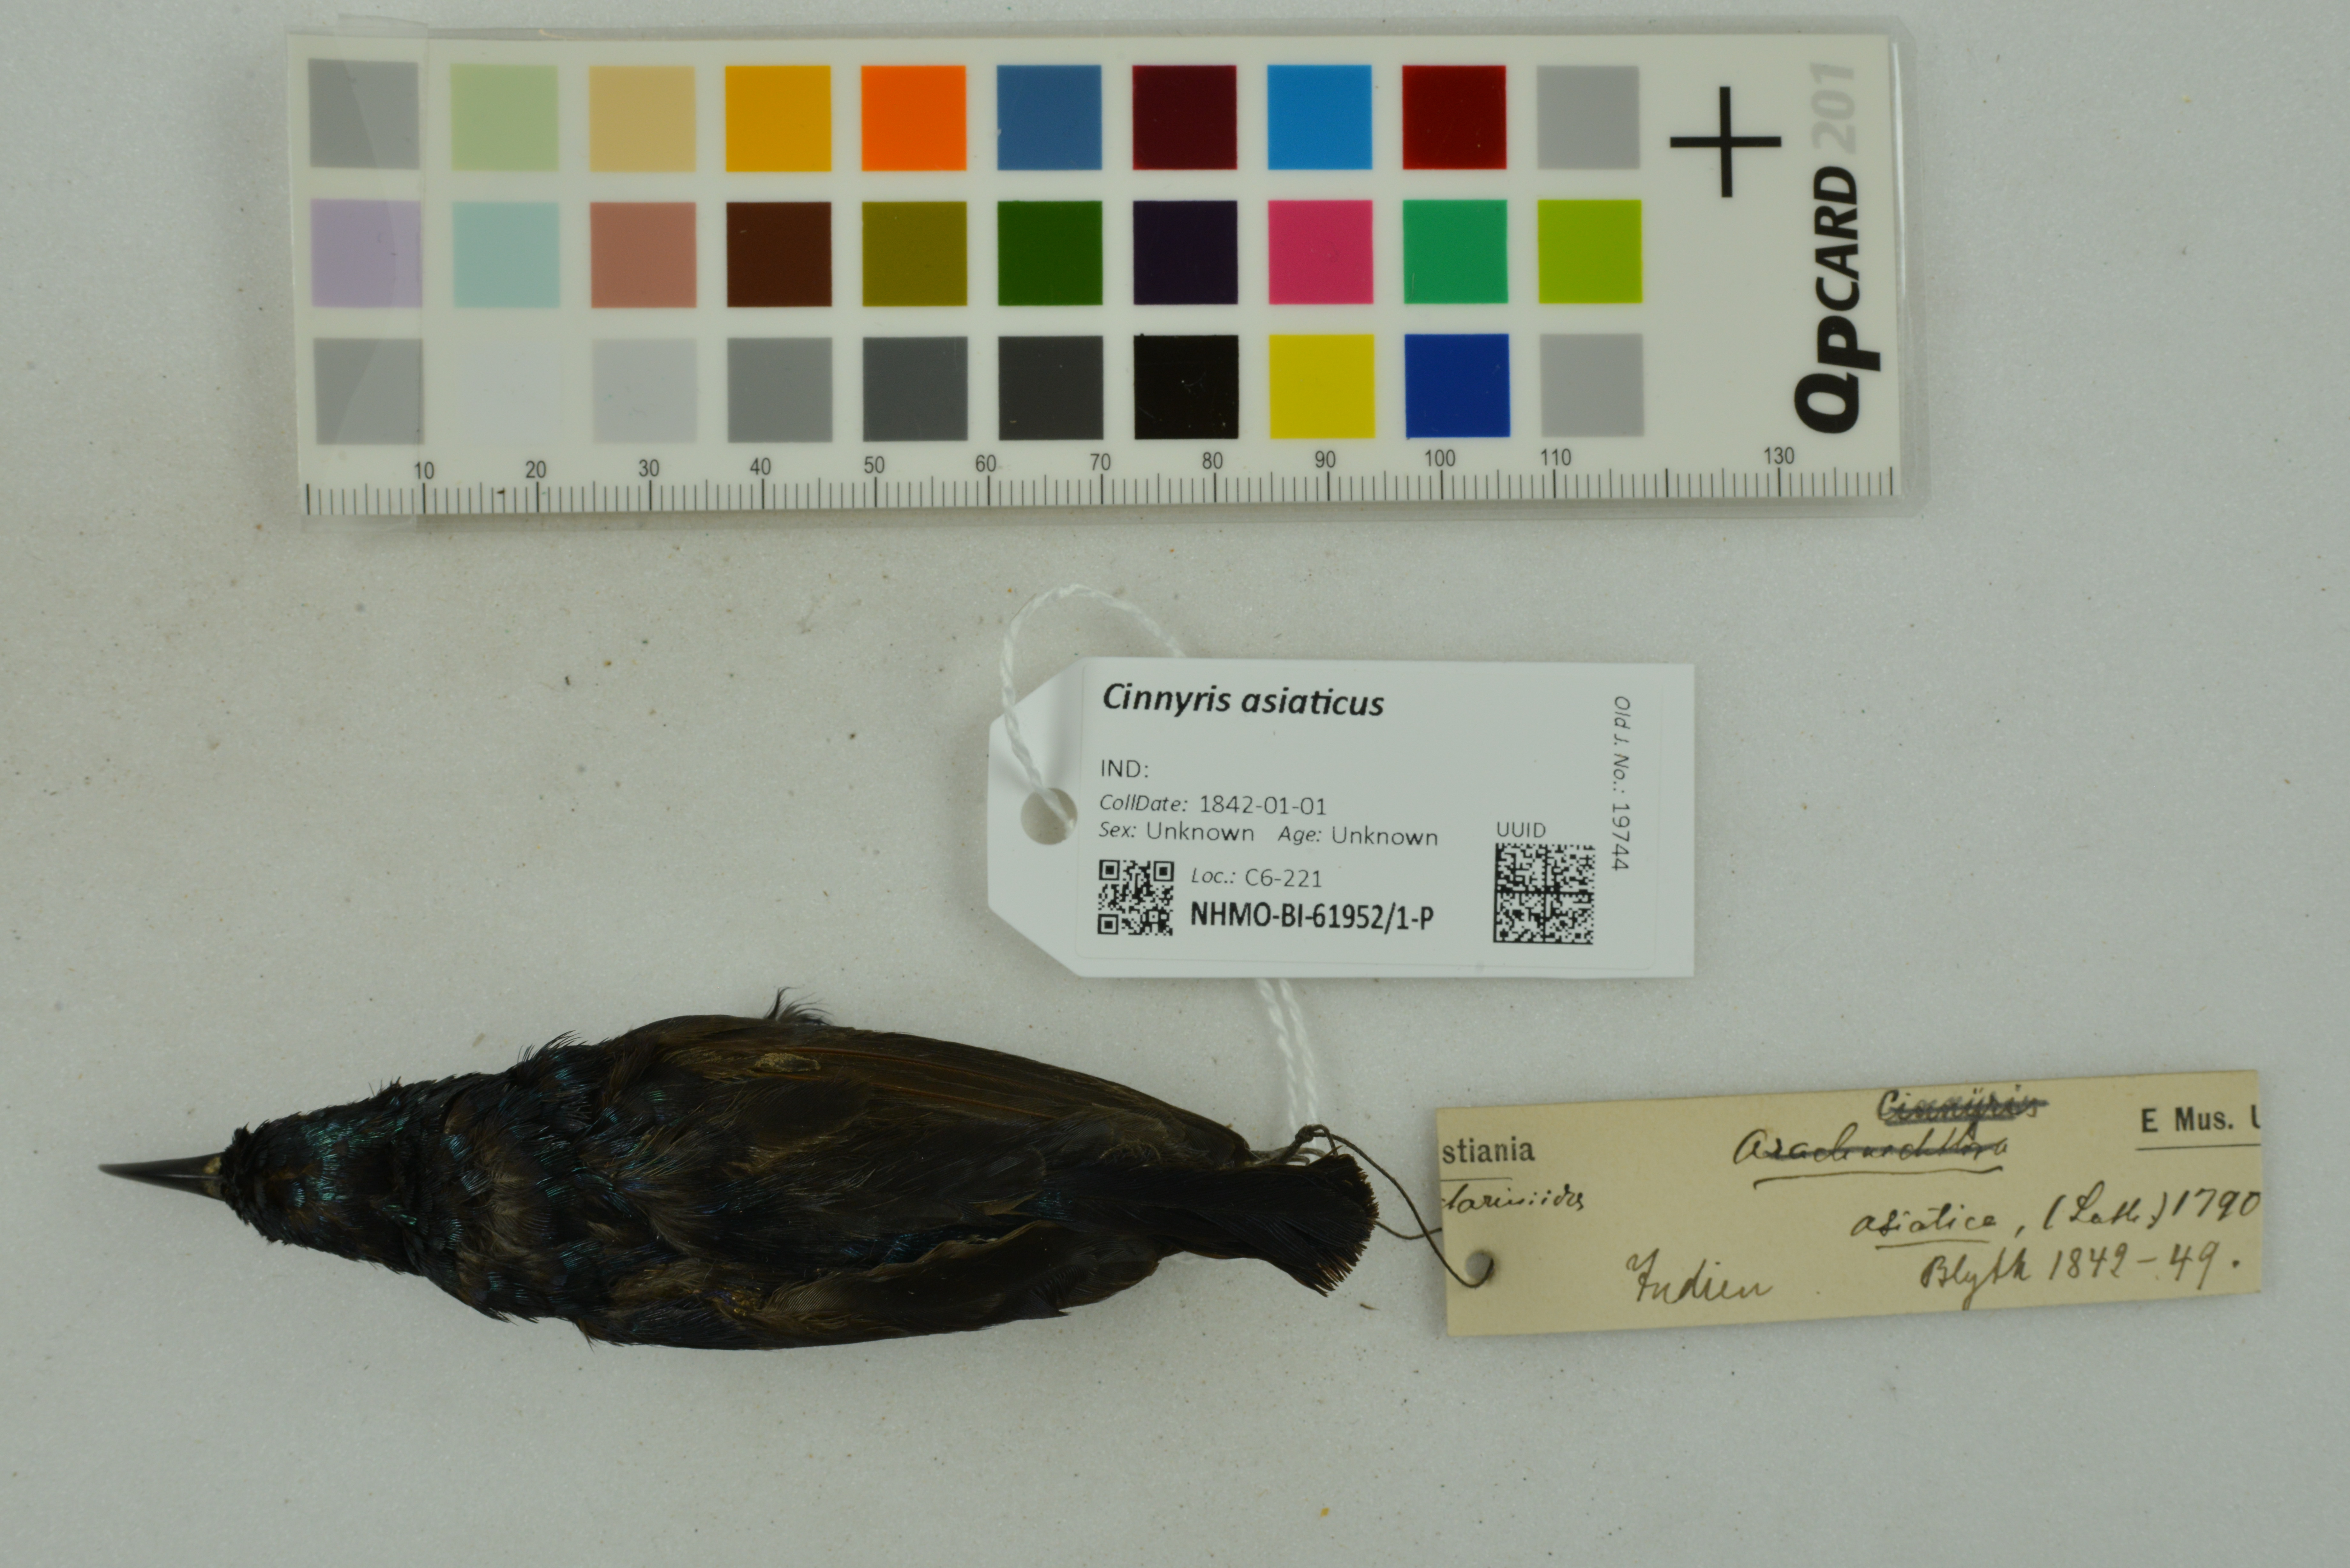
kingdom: Animalia
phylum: Chordata
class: Aves
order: Passeriformes
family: Nectariniidae
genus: Cinnyris
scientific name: Cinnyris asiaticus
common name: Purple sunbird
